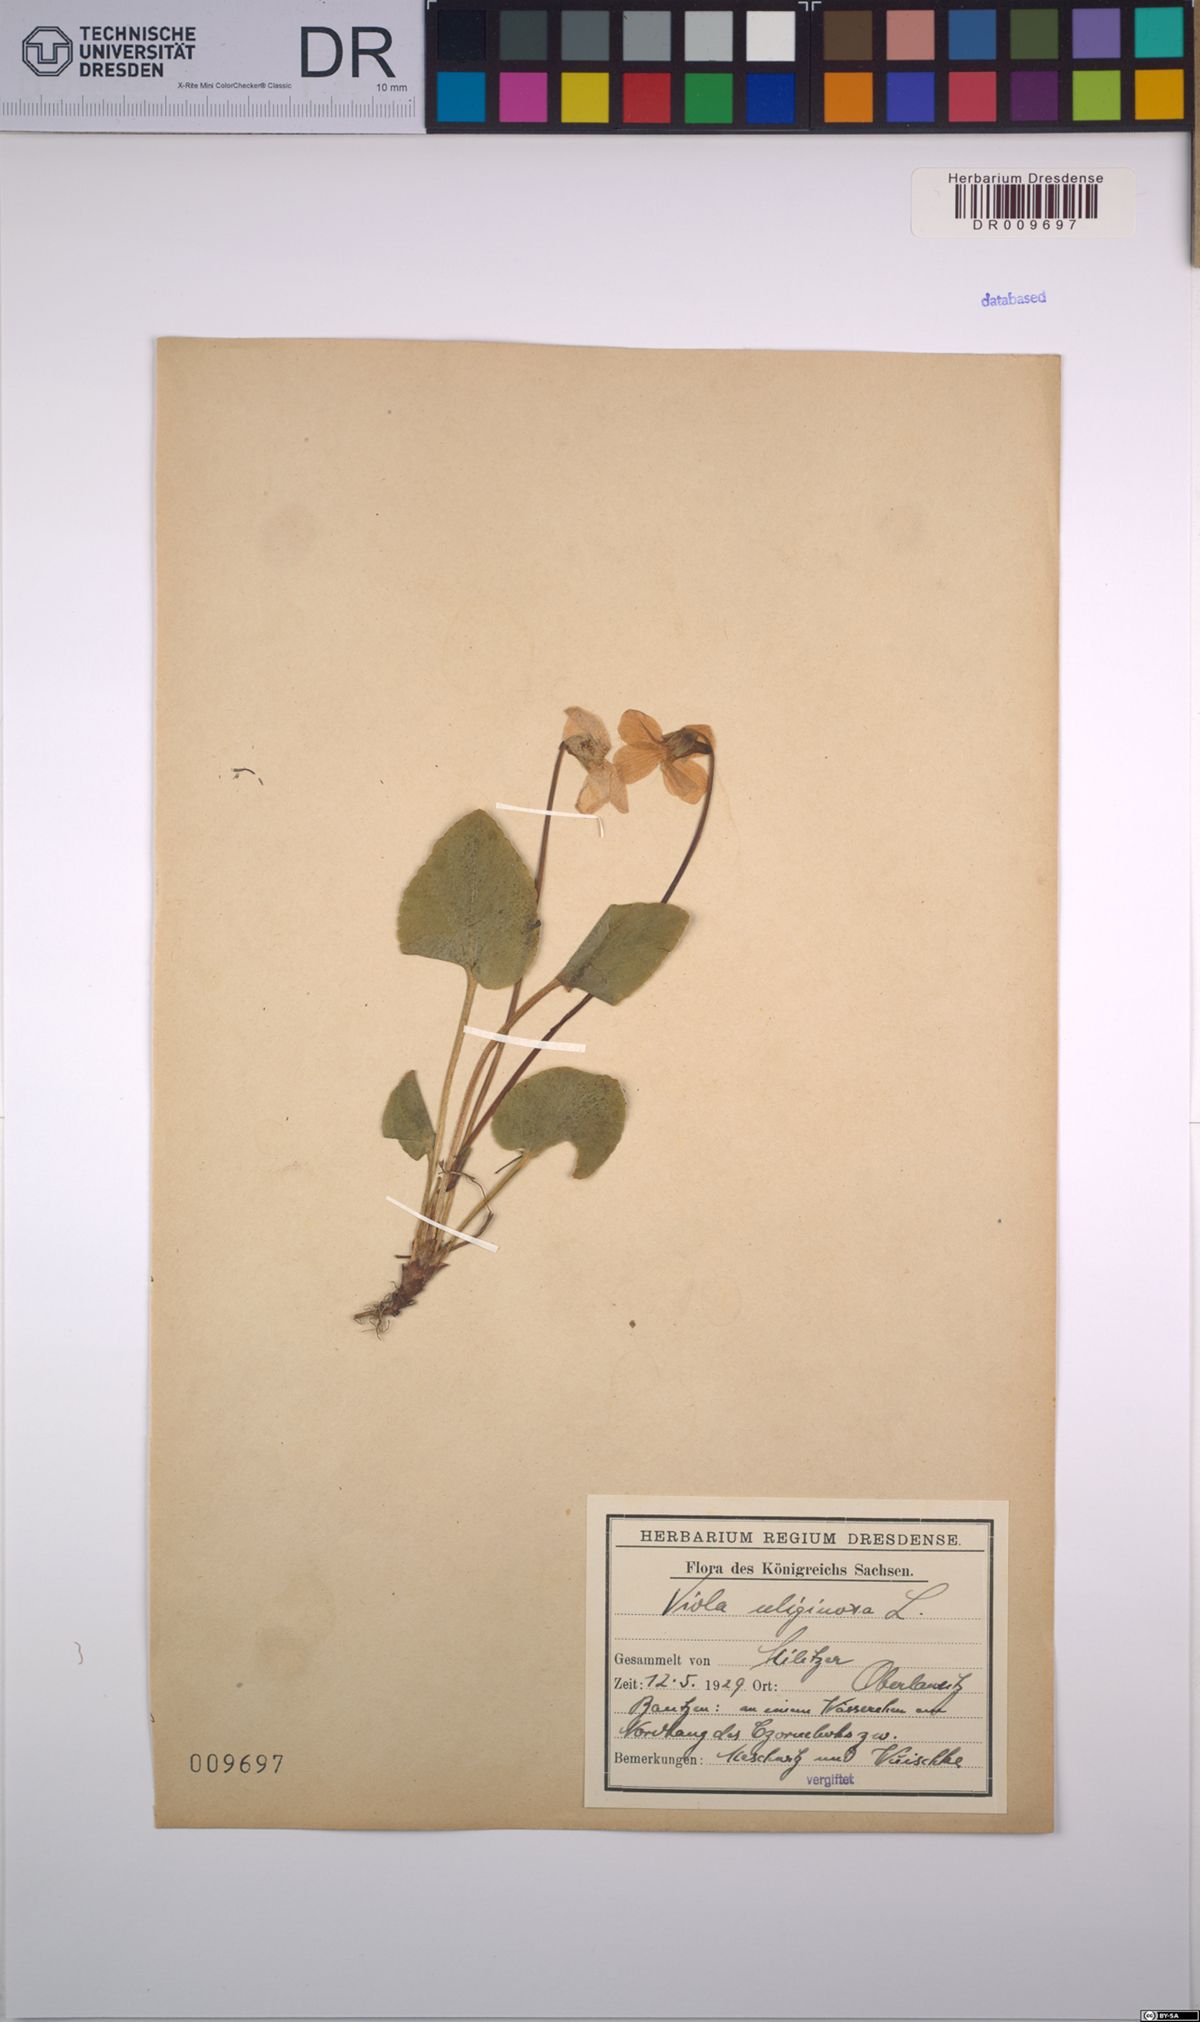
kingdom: Plantae
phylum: Tracheophyta
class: Magnoliopsida
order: Malpighiales
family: Violaceae
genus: Viola
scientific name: Viola uliginosa
